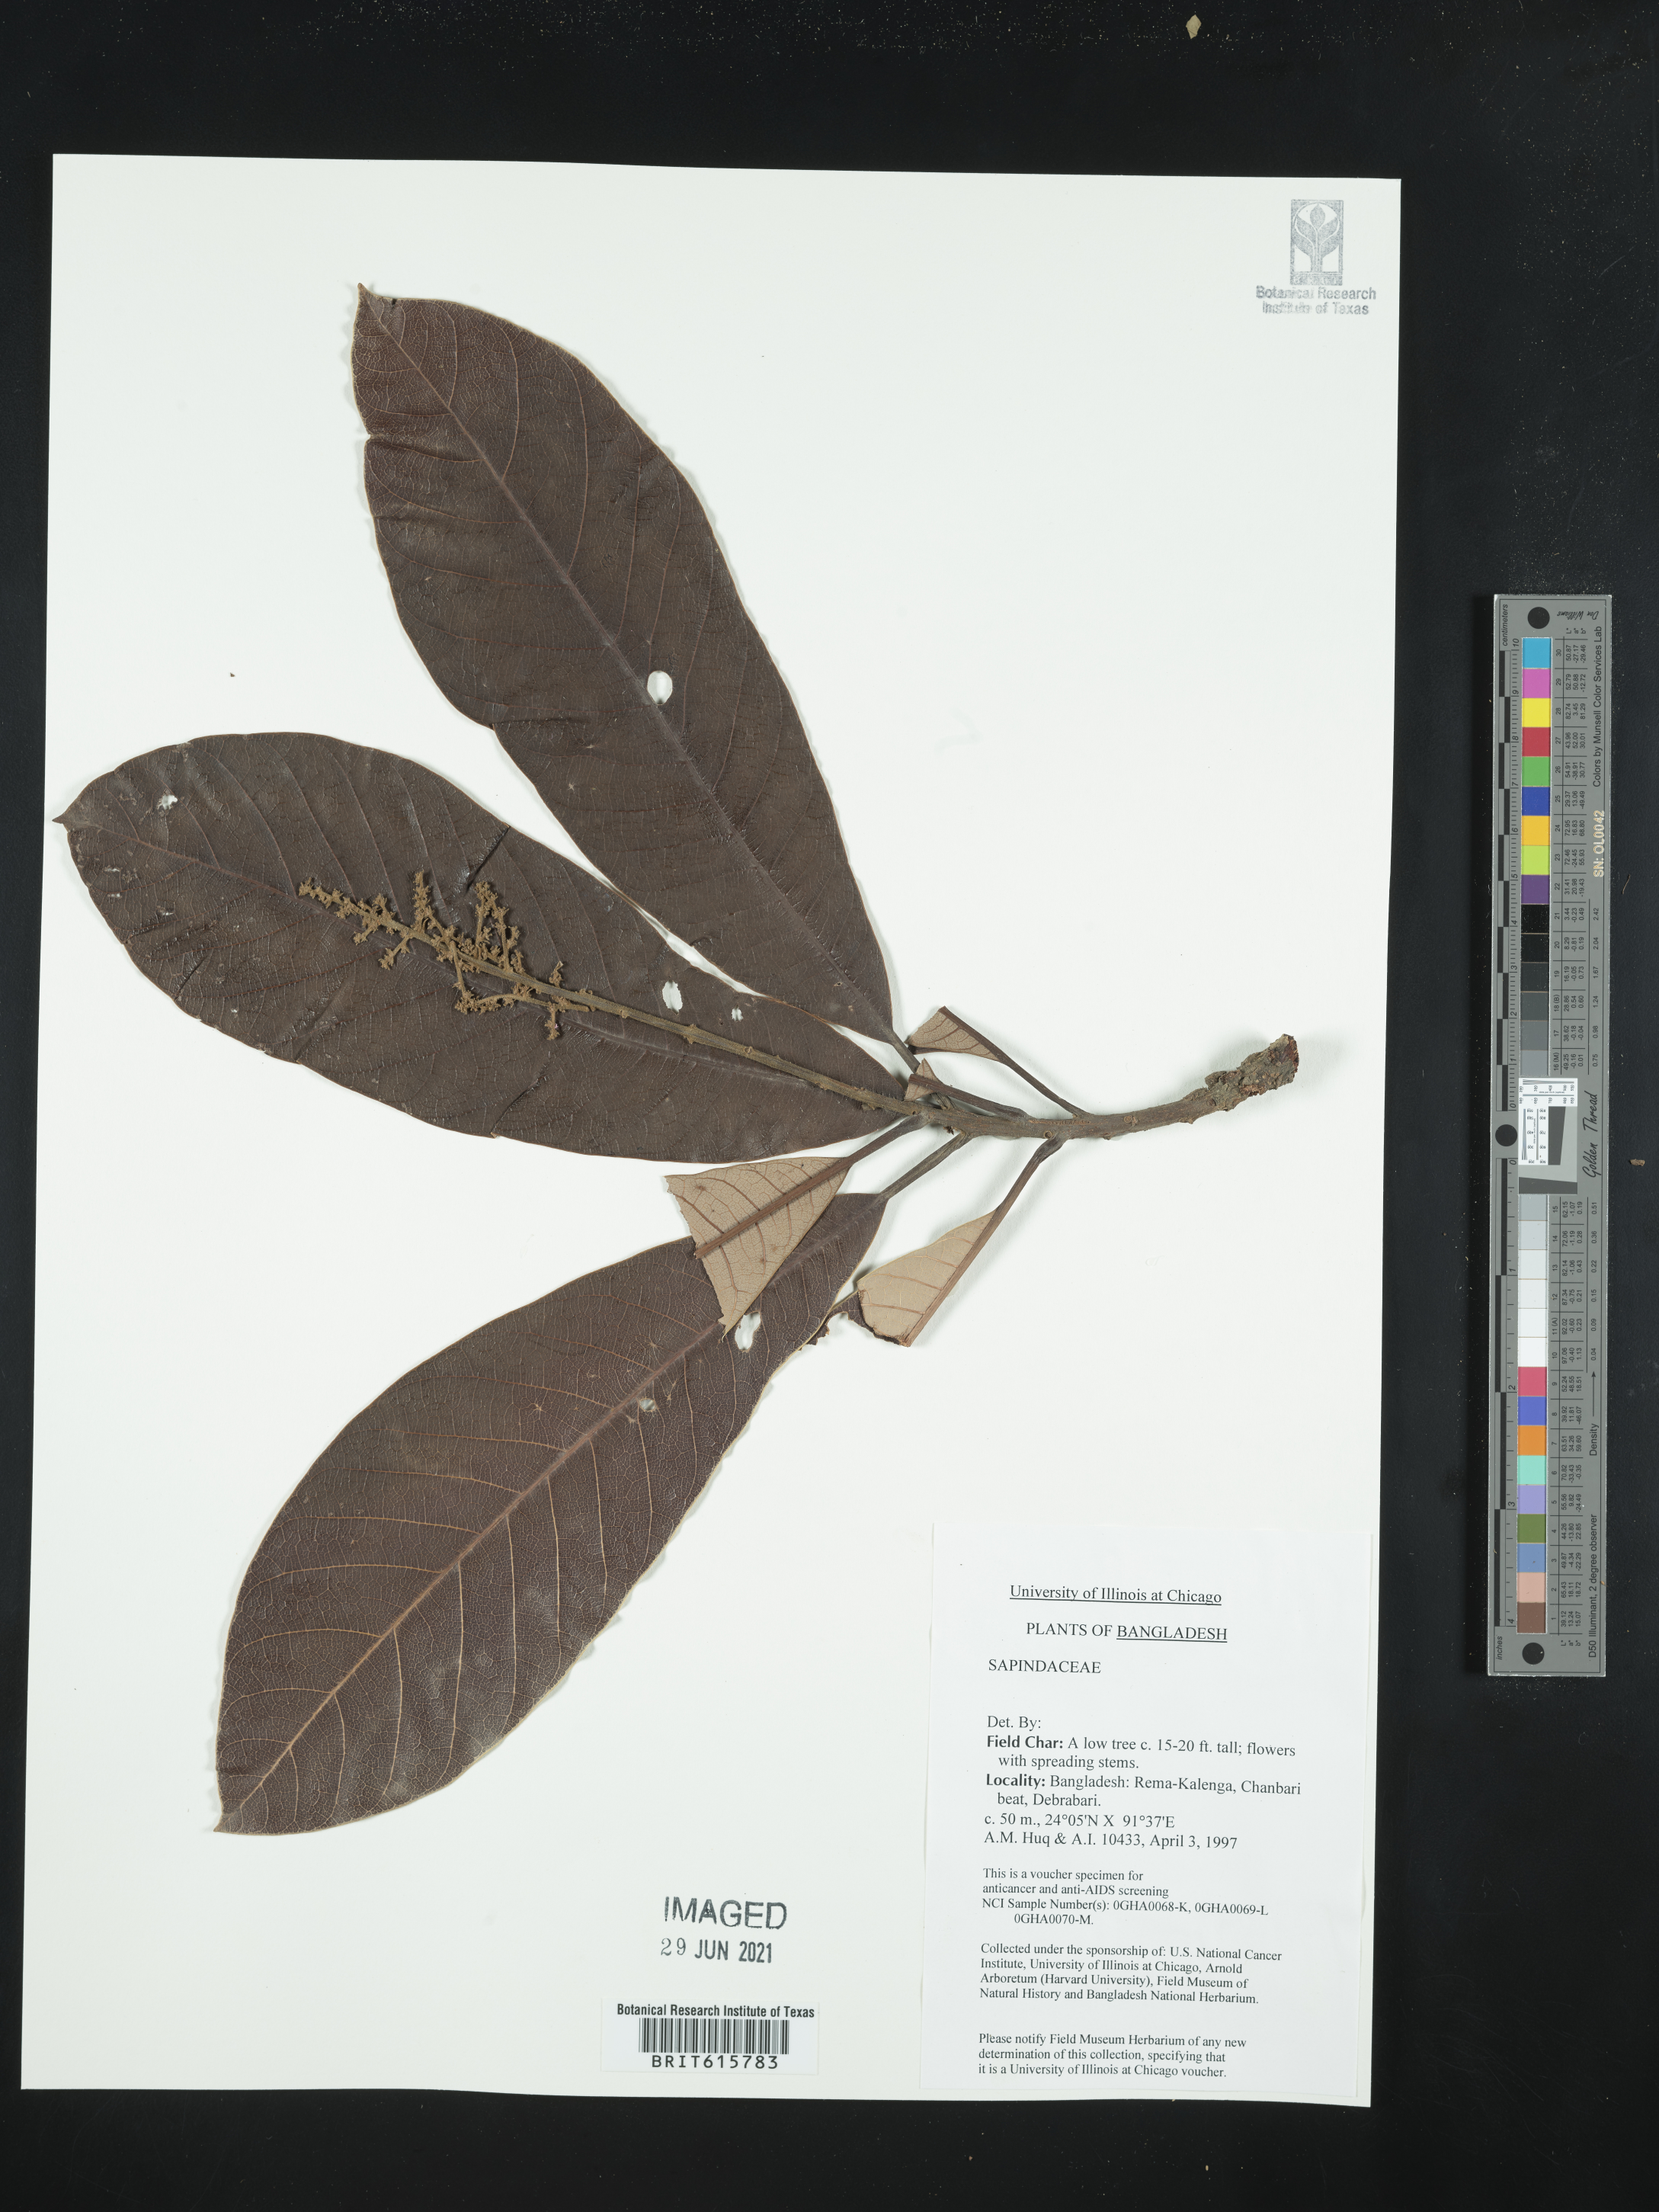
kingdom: Plantae
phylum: Tracheophyta
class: Magnoliopsida
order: Sapindales
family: Sapindaceae
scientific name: Sapindaceae
